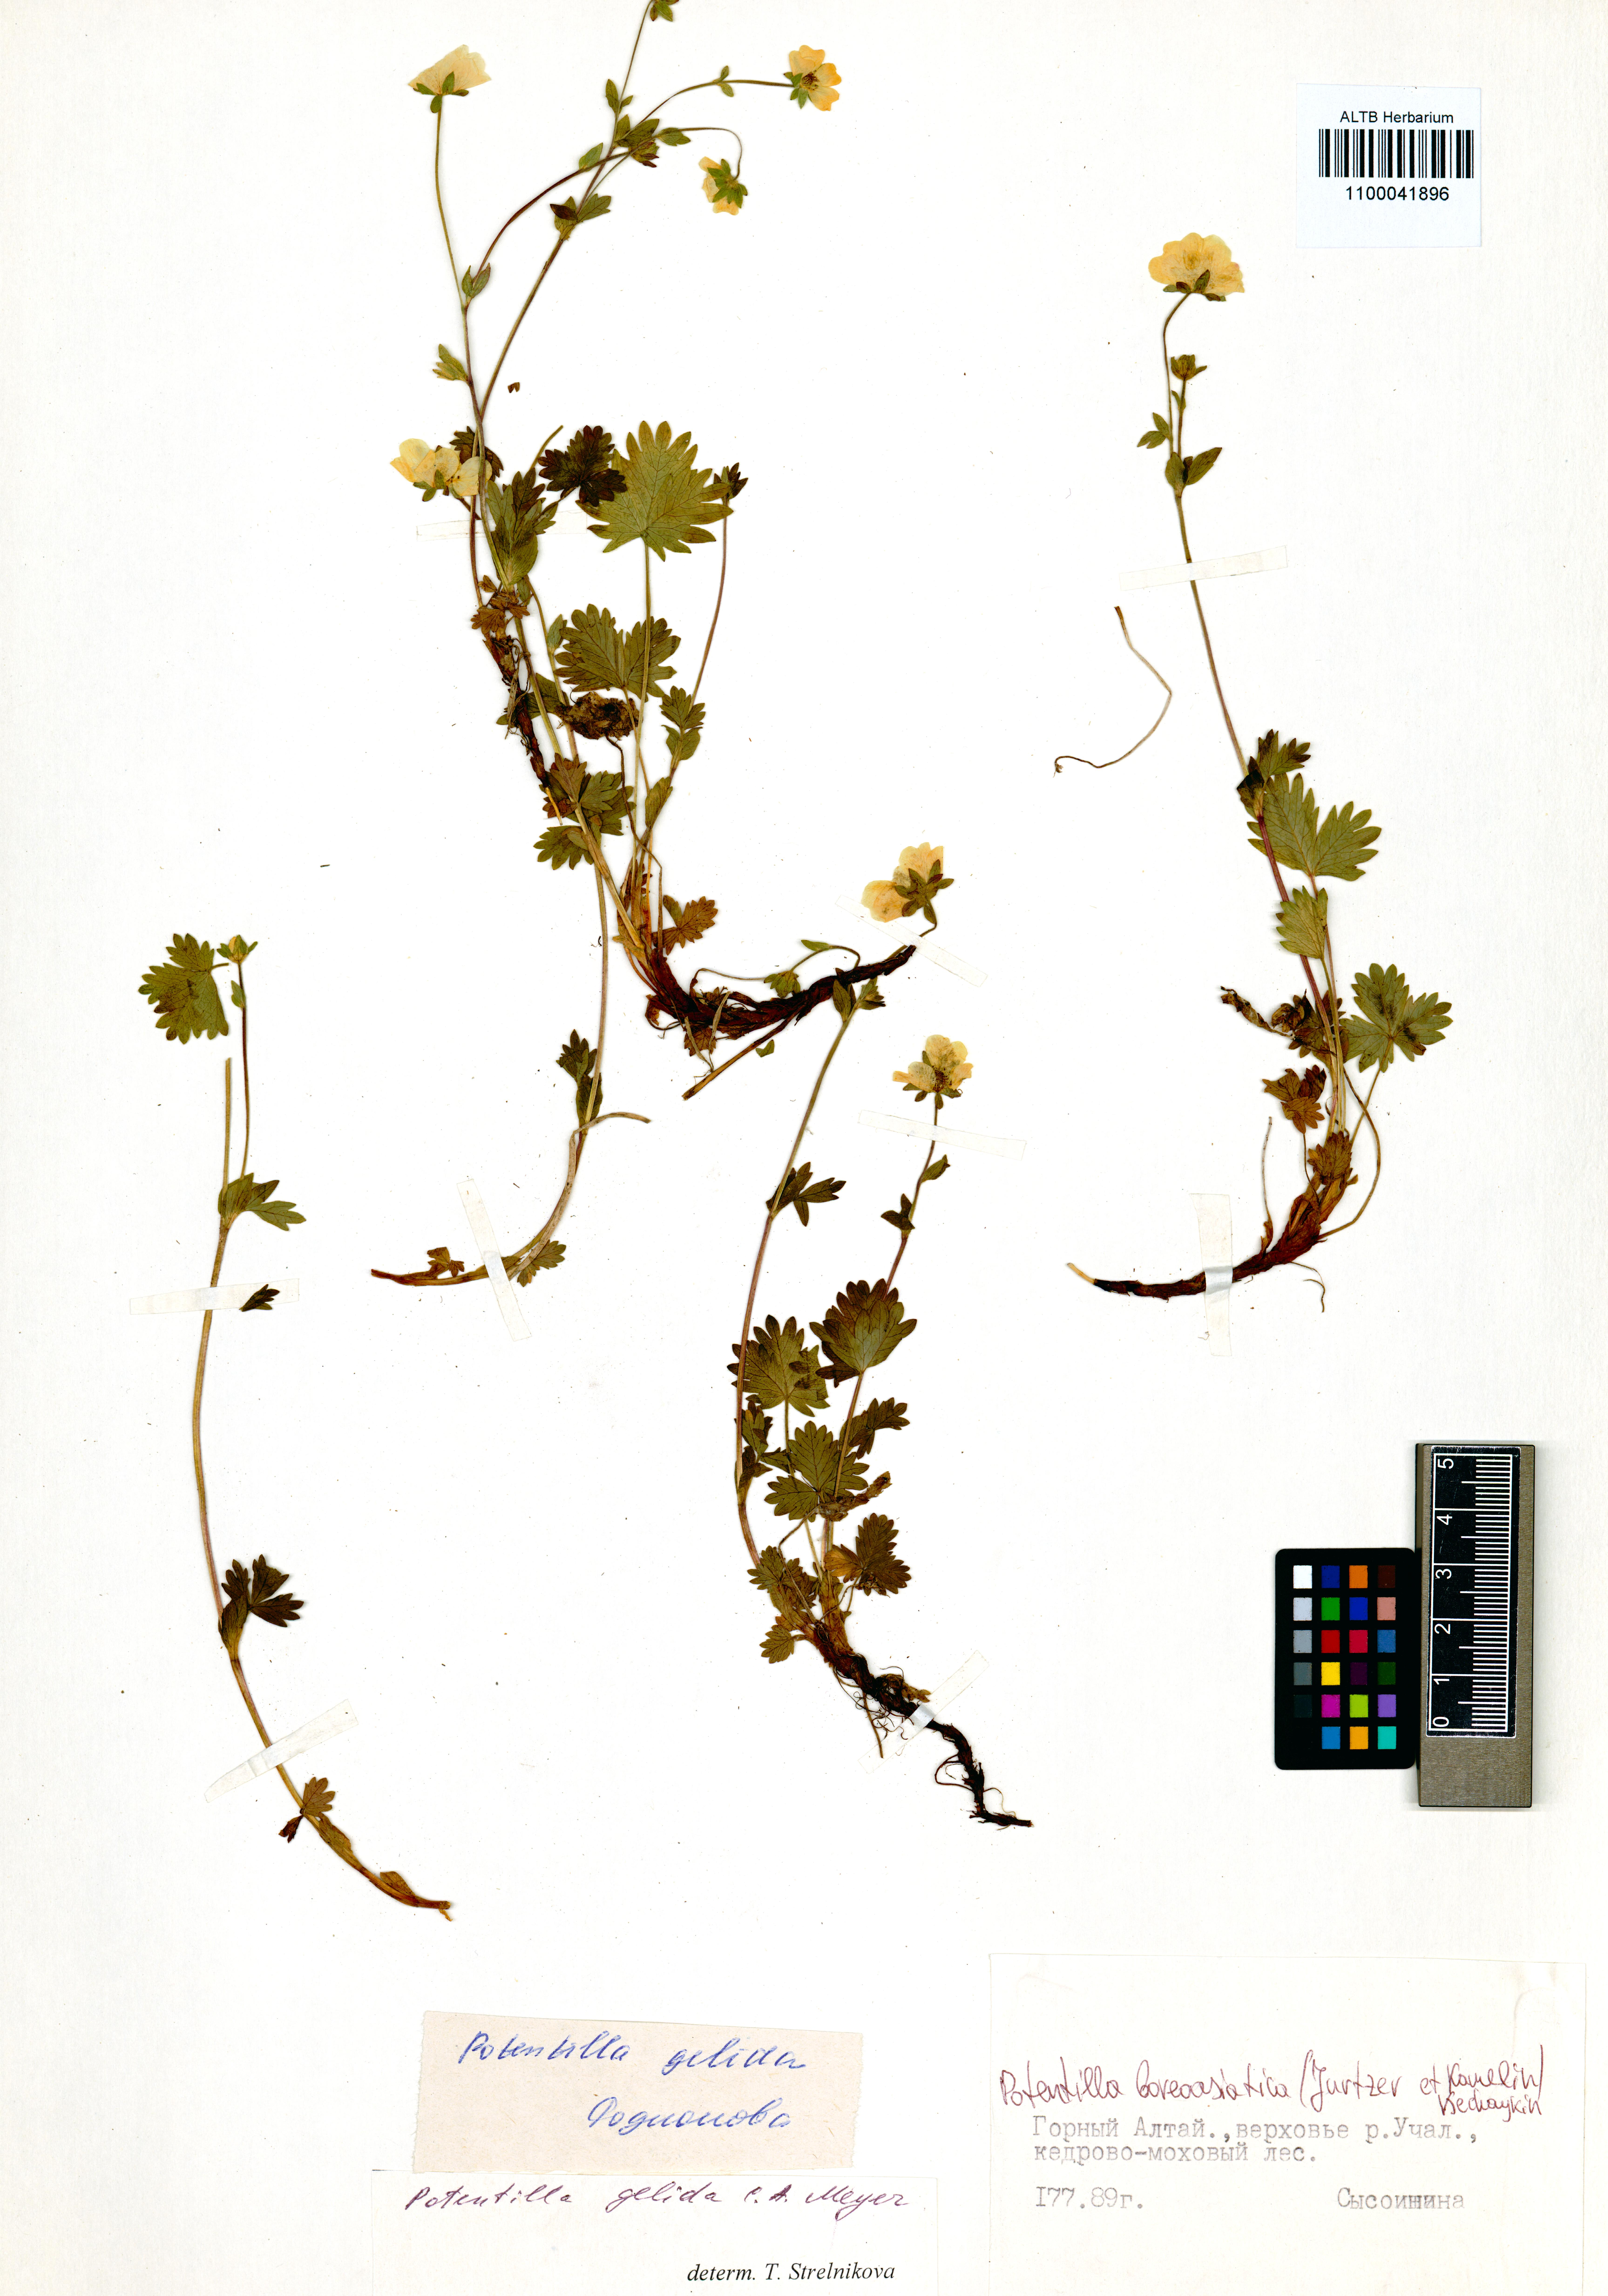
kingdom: Plantae
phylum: Tracheophyta
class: Magnoliopsida
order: Rosales
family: Rosaceae
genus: Potentilla
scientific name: Potentilla
